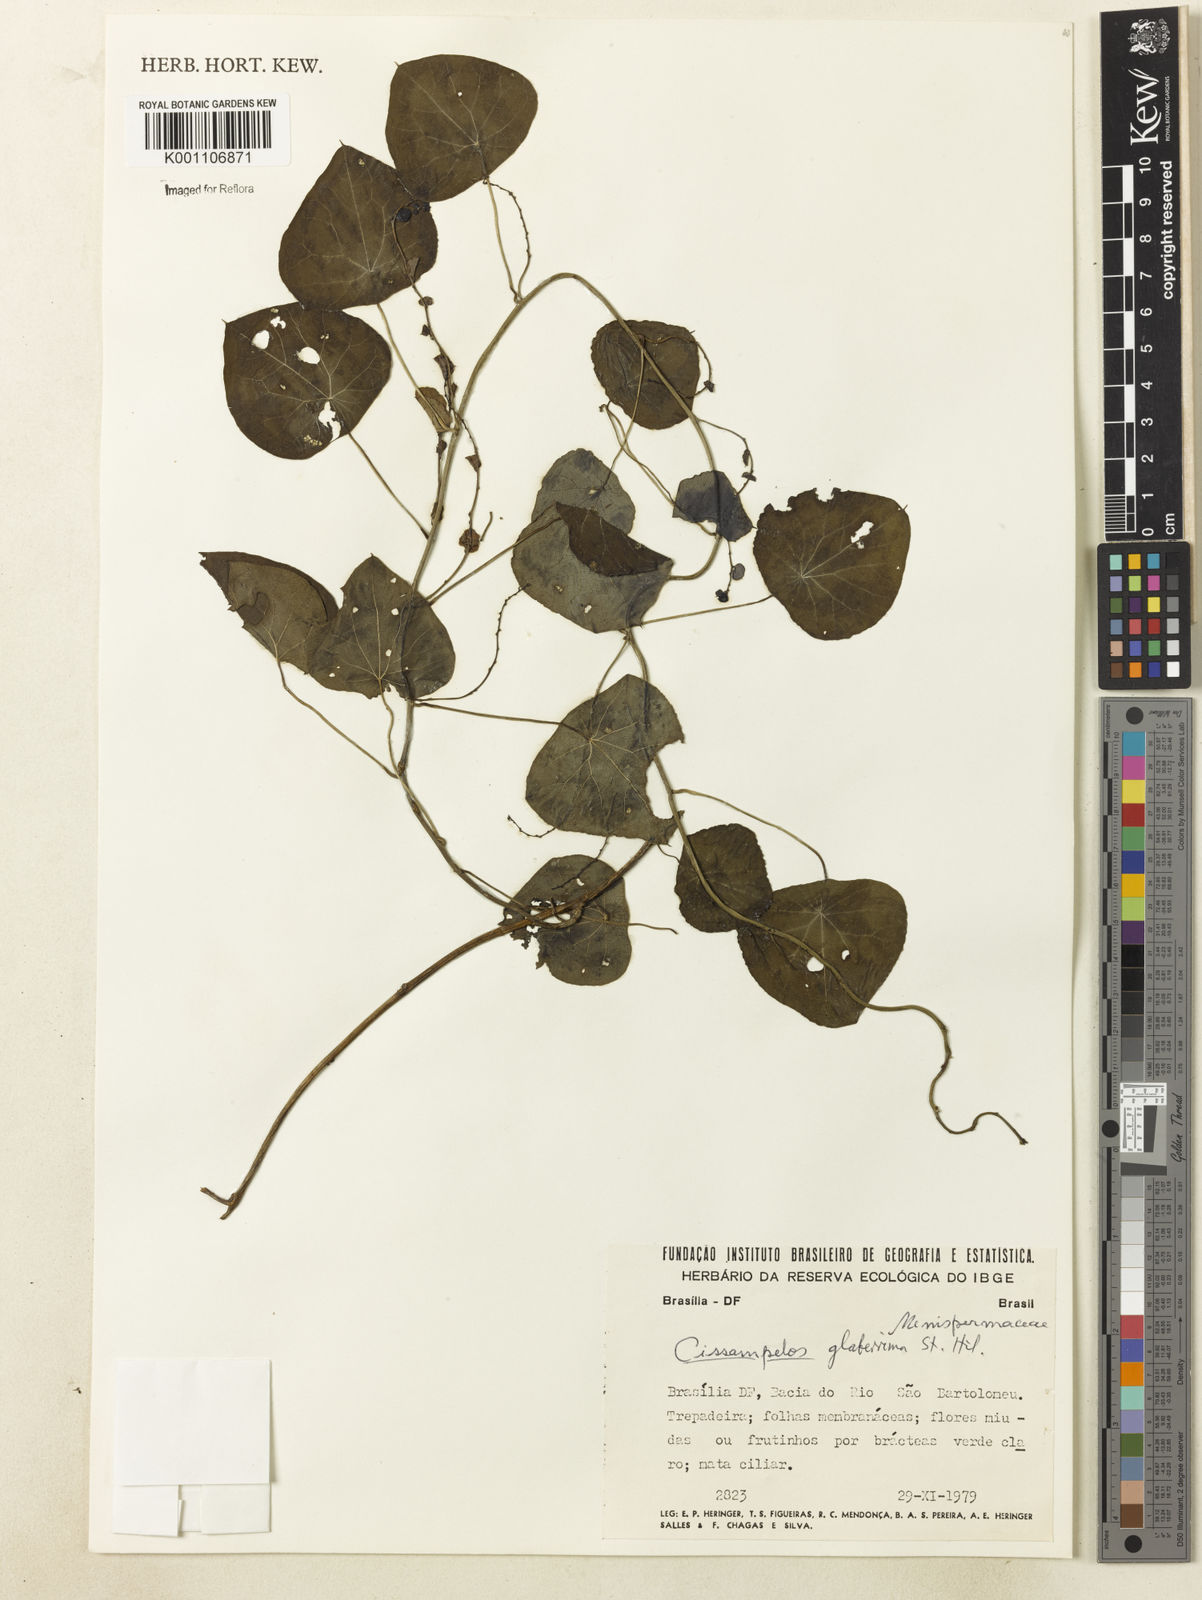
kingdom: Plantae
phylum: Tracheophyta
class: Magnoliopsida
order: Ranunculales
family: Menispermaceae
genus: Cissampelos
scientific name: Cissampelos glaberrima
